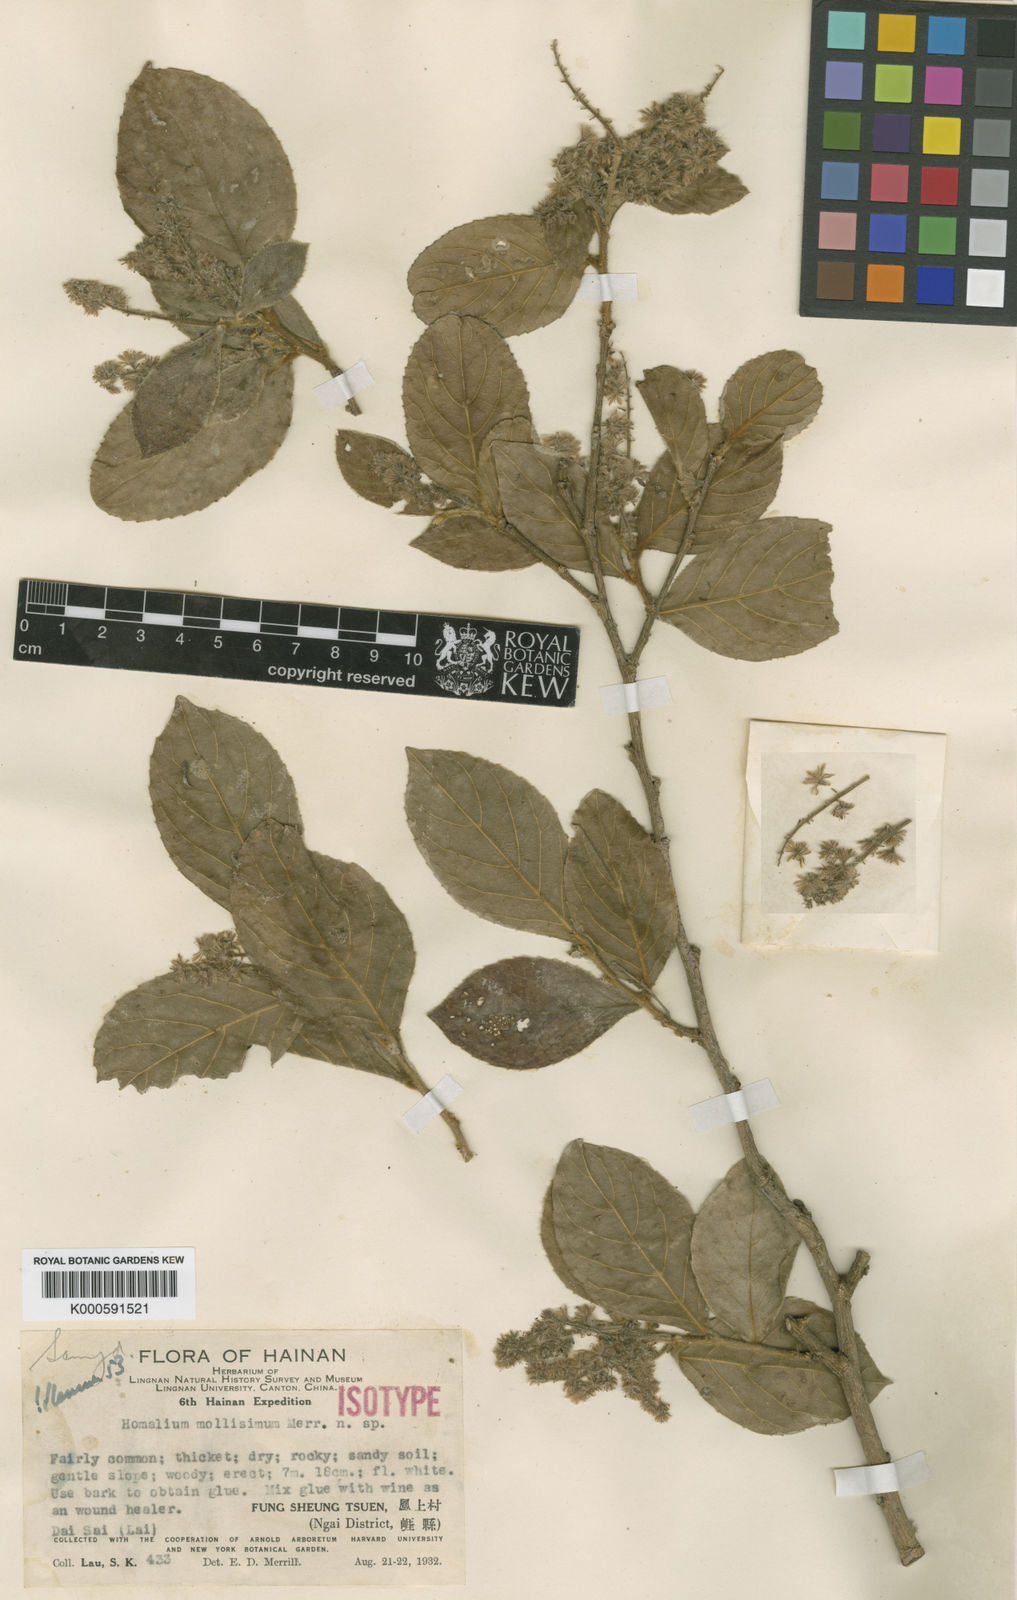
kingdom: Plantae
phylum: Tracheophyta
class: Magnoliopsida
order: Malpighiales
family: Salicaceae
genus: Homalium
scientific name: Homalium mollissimum
